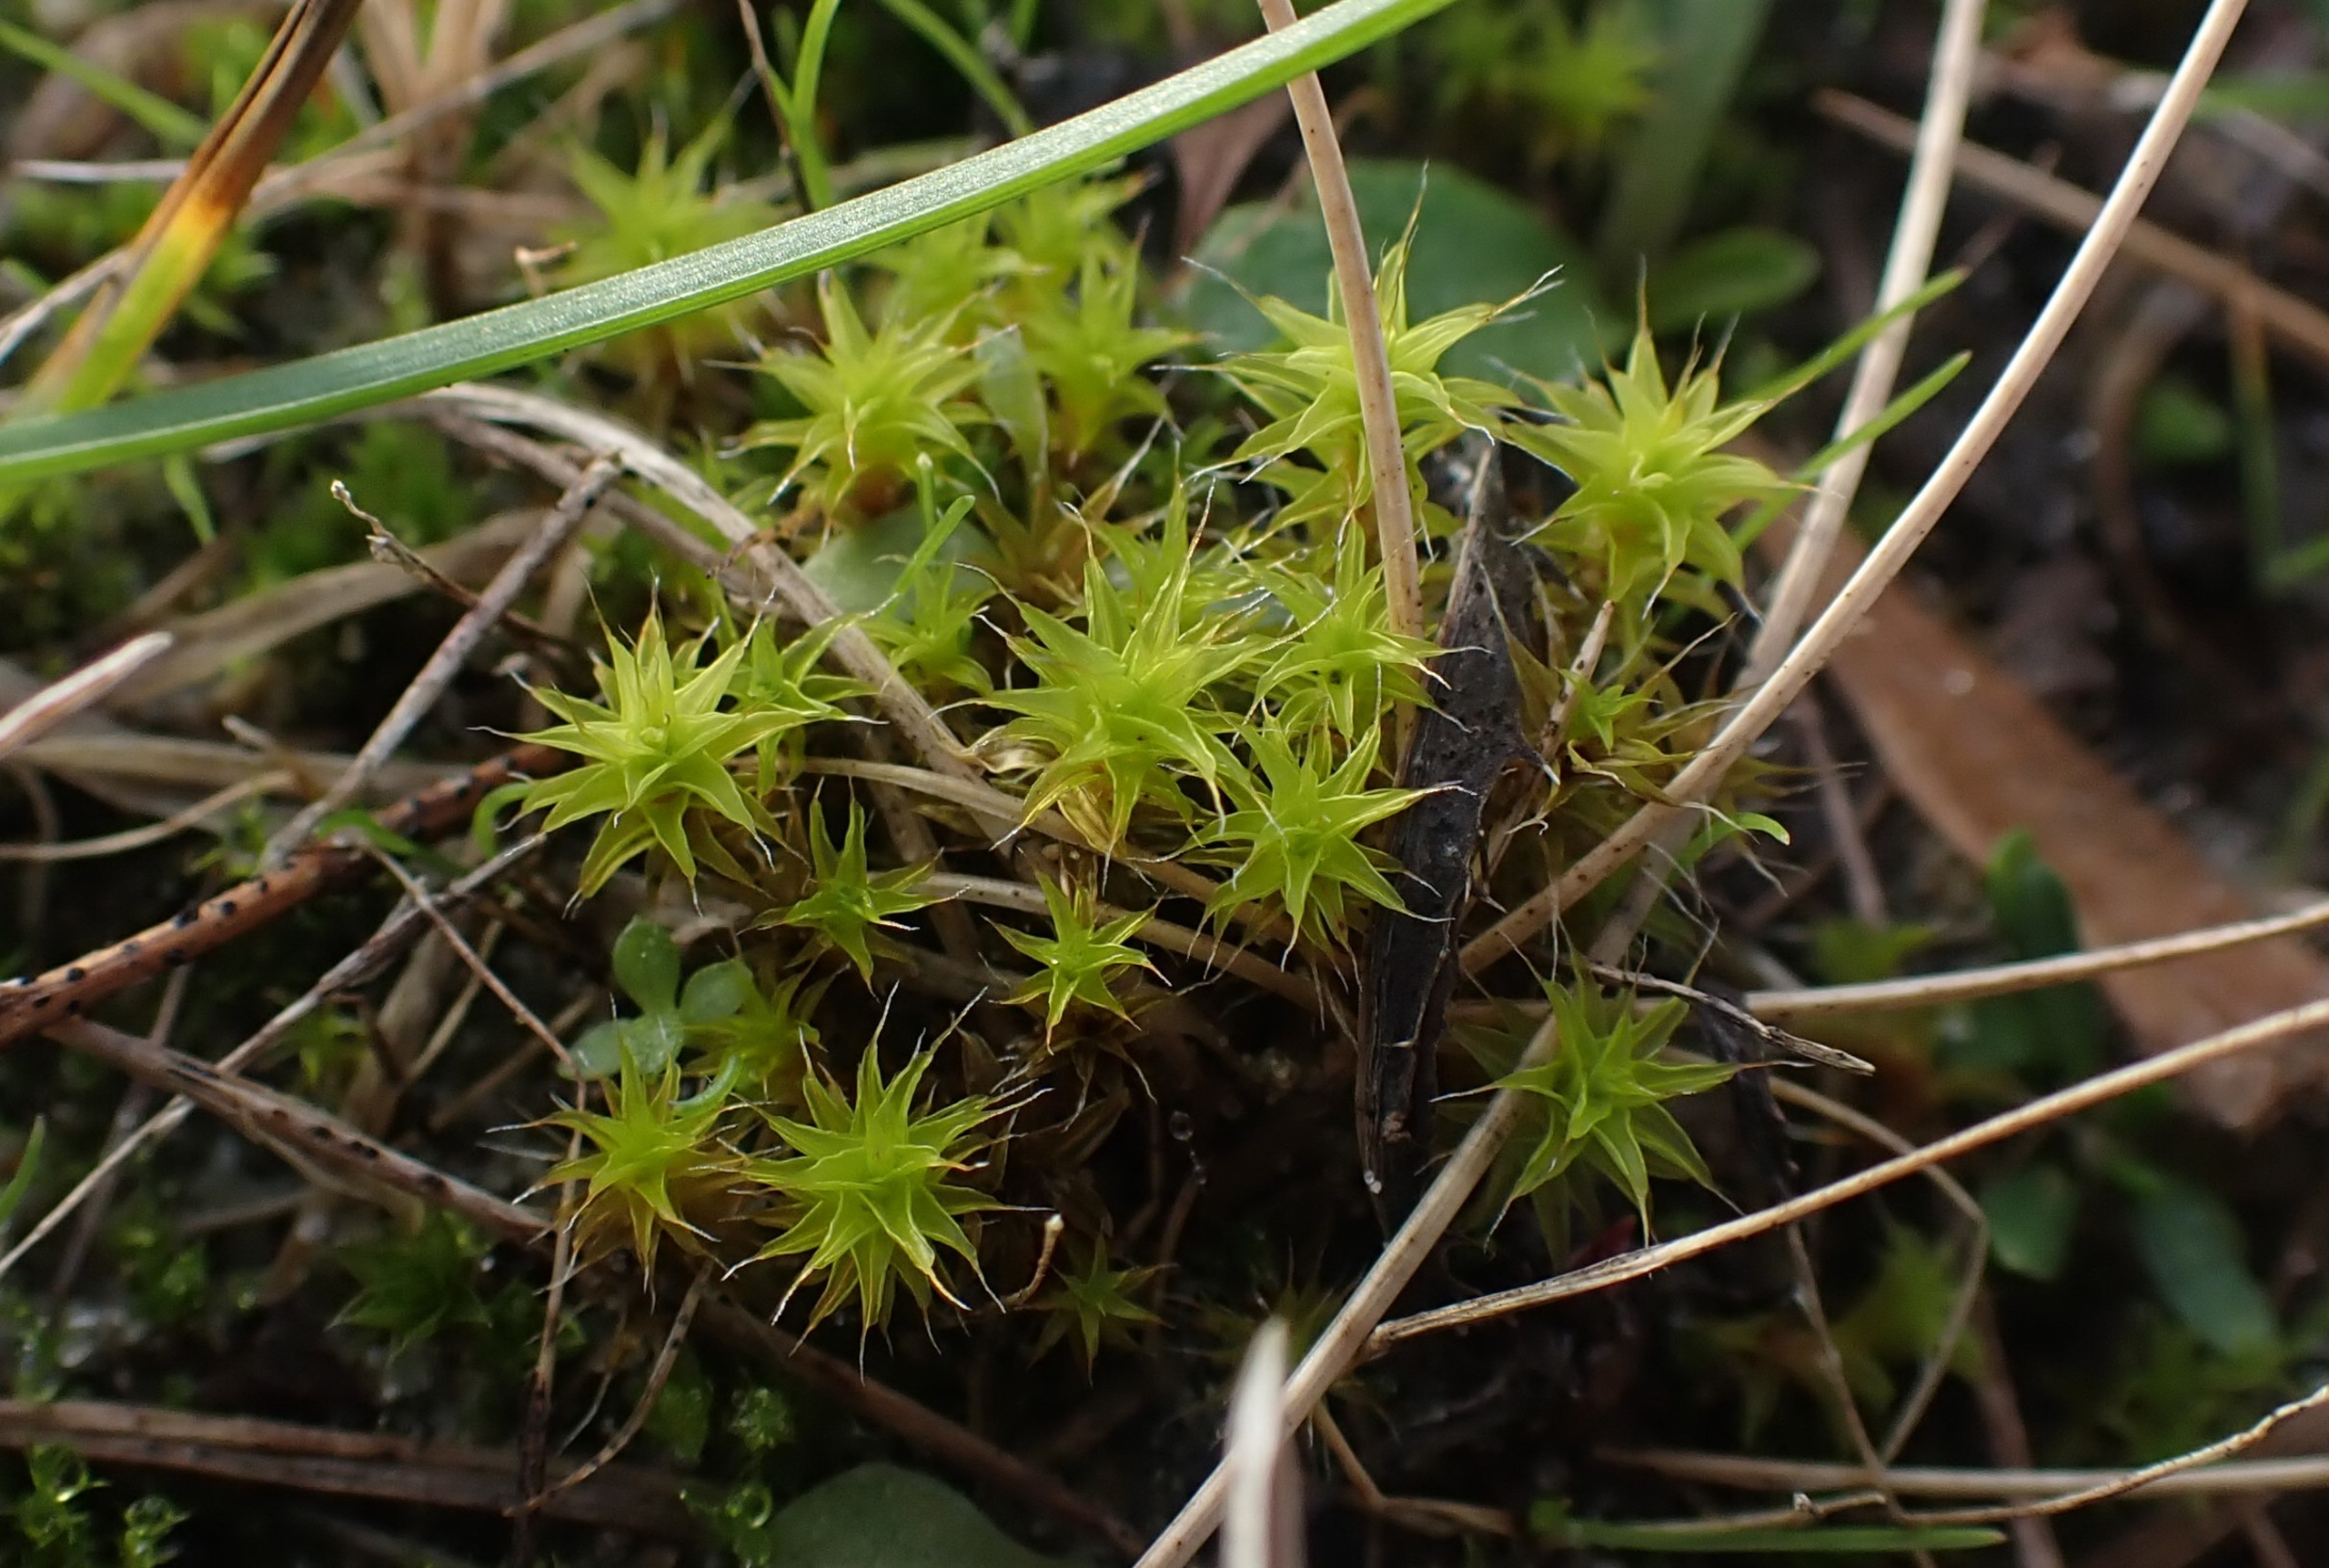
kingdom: Plantae
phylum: Bryophyta
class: Bryopsida
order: Pottiales
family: Pottiaceae
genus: Syntrichia
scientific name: Syntrichia ruralis
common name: Spidsbladet hårstjerne
